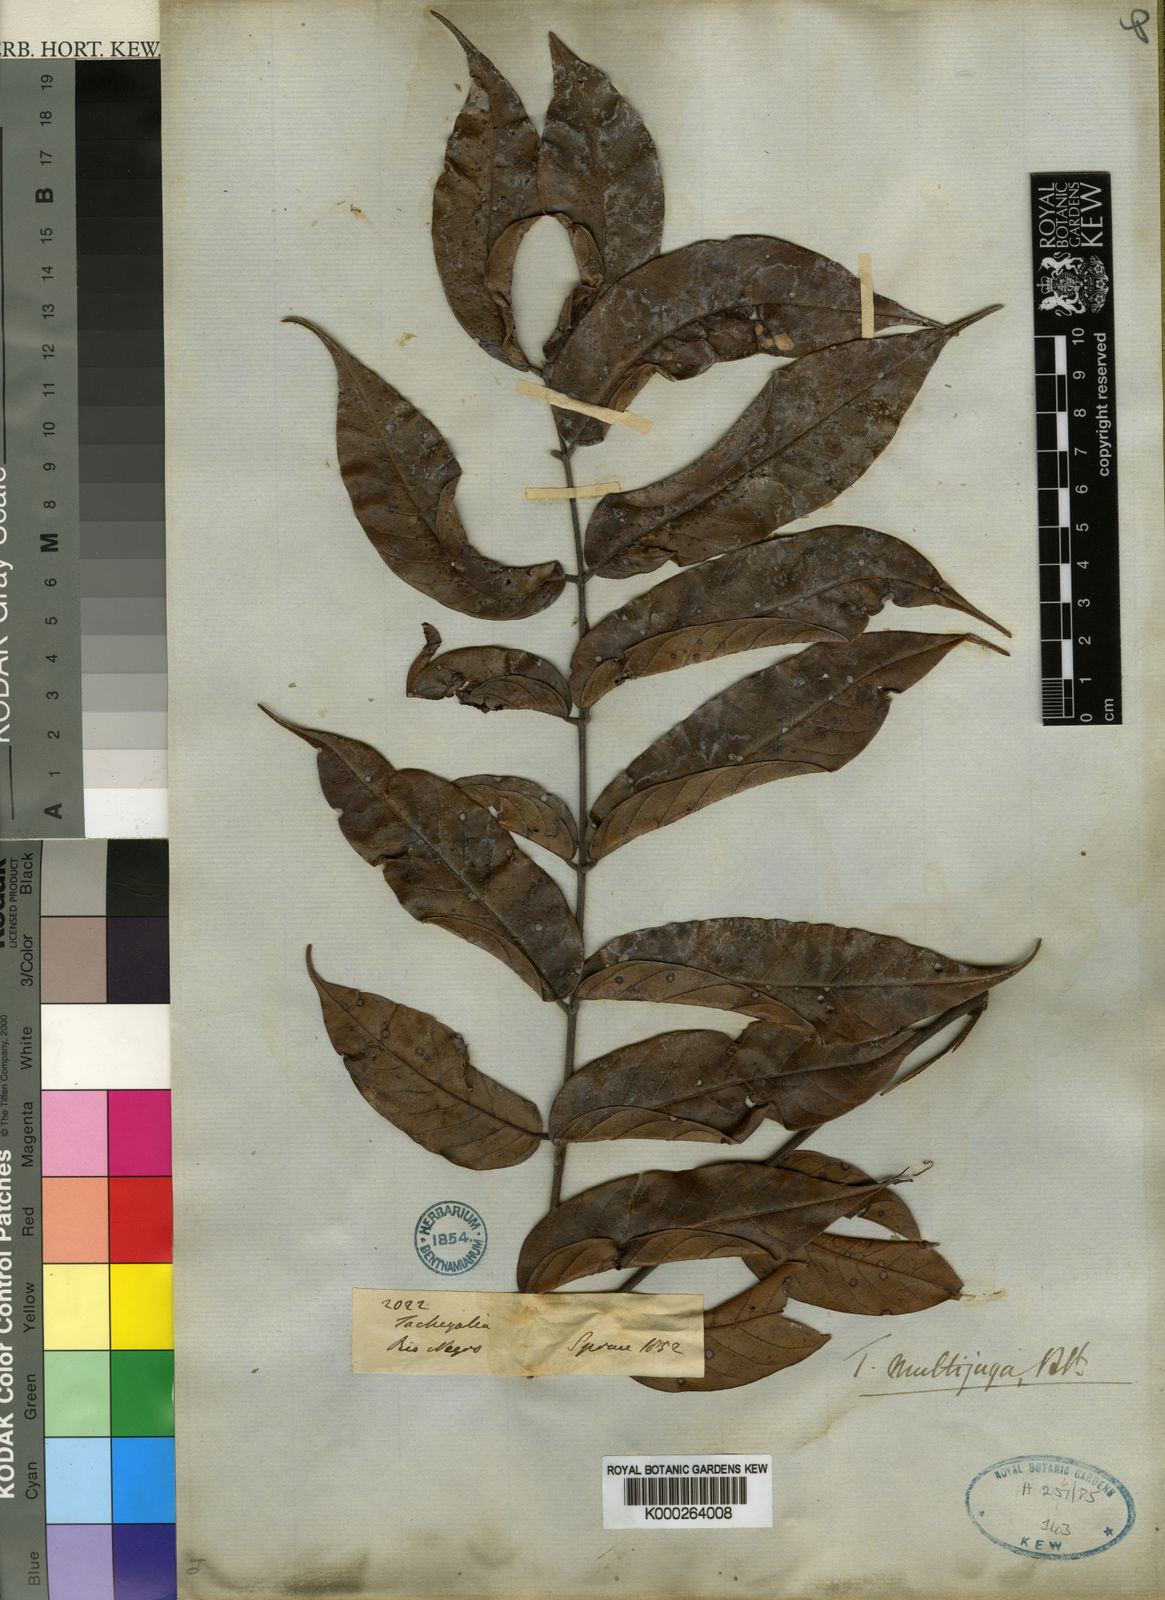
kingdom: Plantae
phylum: Tracheophyta
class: Magnoliopsida
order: Fabales
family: Fabaceae
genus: Tachigali
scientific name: Tachigali paratyensis
